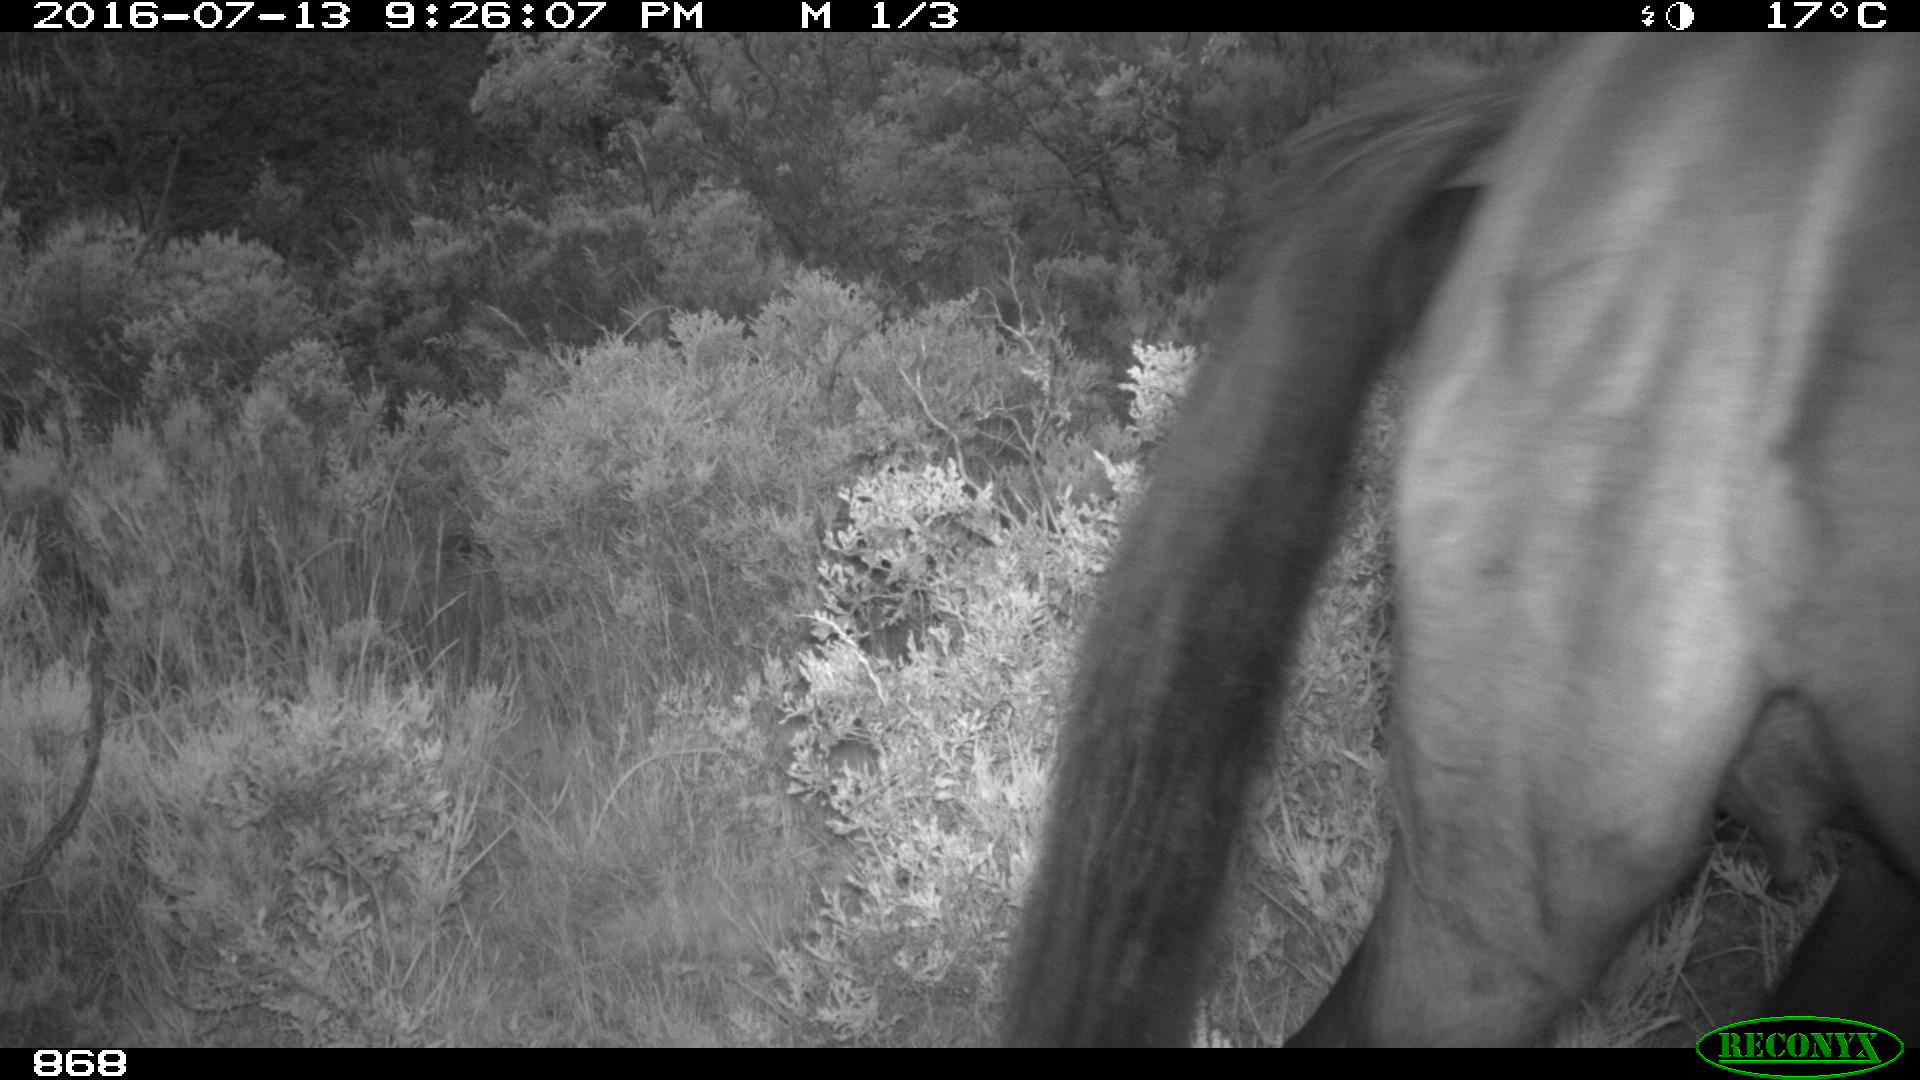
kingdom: Animalia
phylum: Chordata
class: Mammalia
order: Perissodactyla
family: Equidae
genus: Equus
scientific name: Equus caballus
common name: Horse
